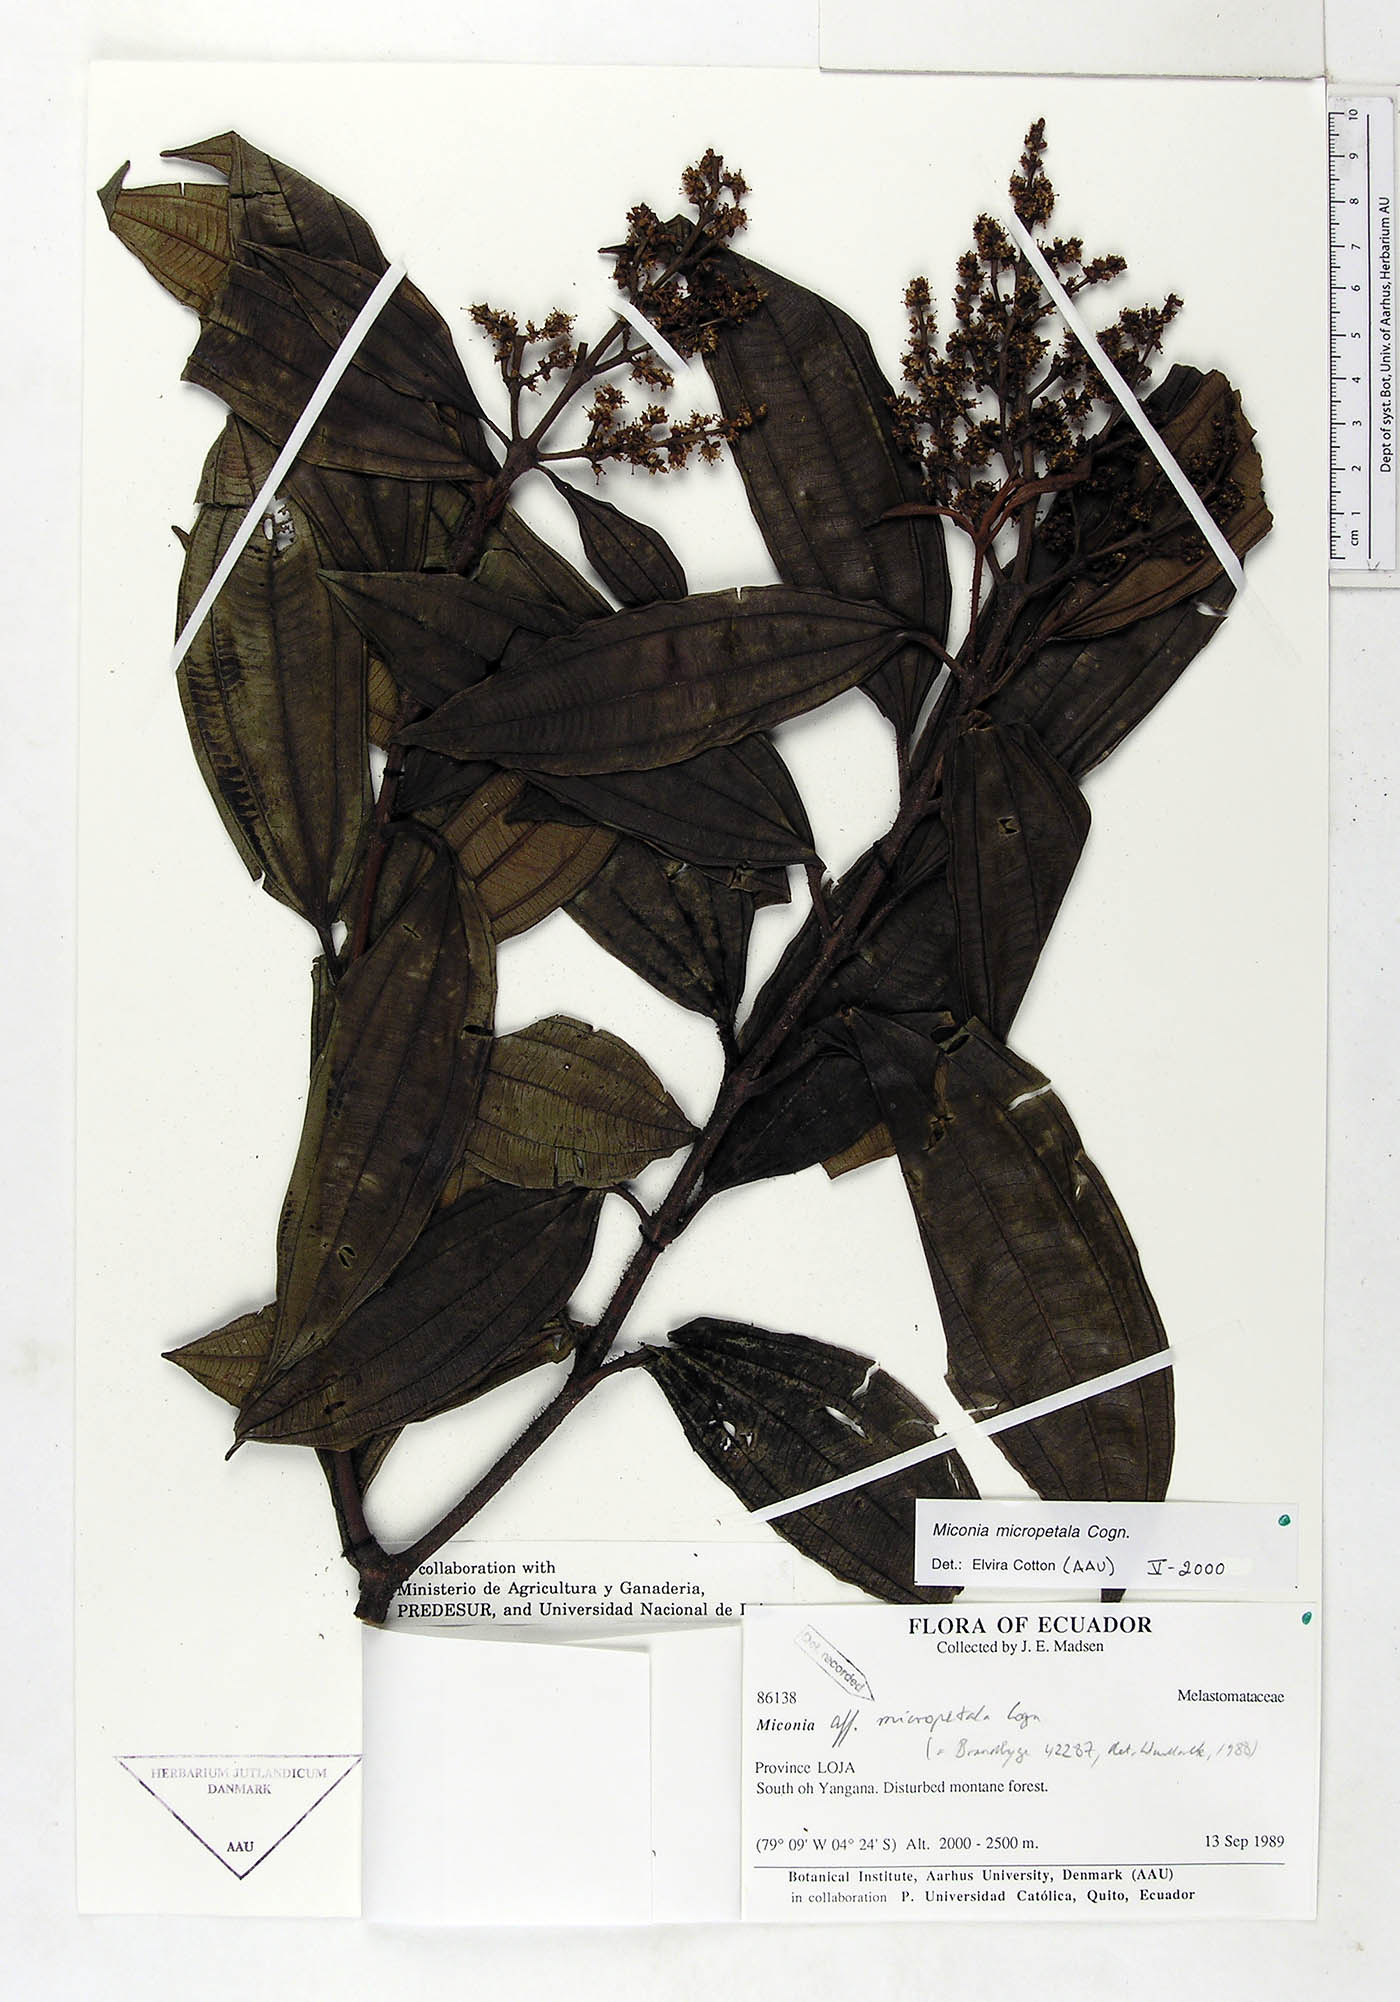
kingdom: Plantae
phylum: Tracheophyta
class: Magnoliopsida
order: Myrtales
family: Melastomataceae
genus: Miconia
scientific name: Miconia micropetala
